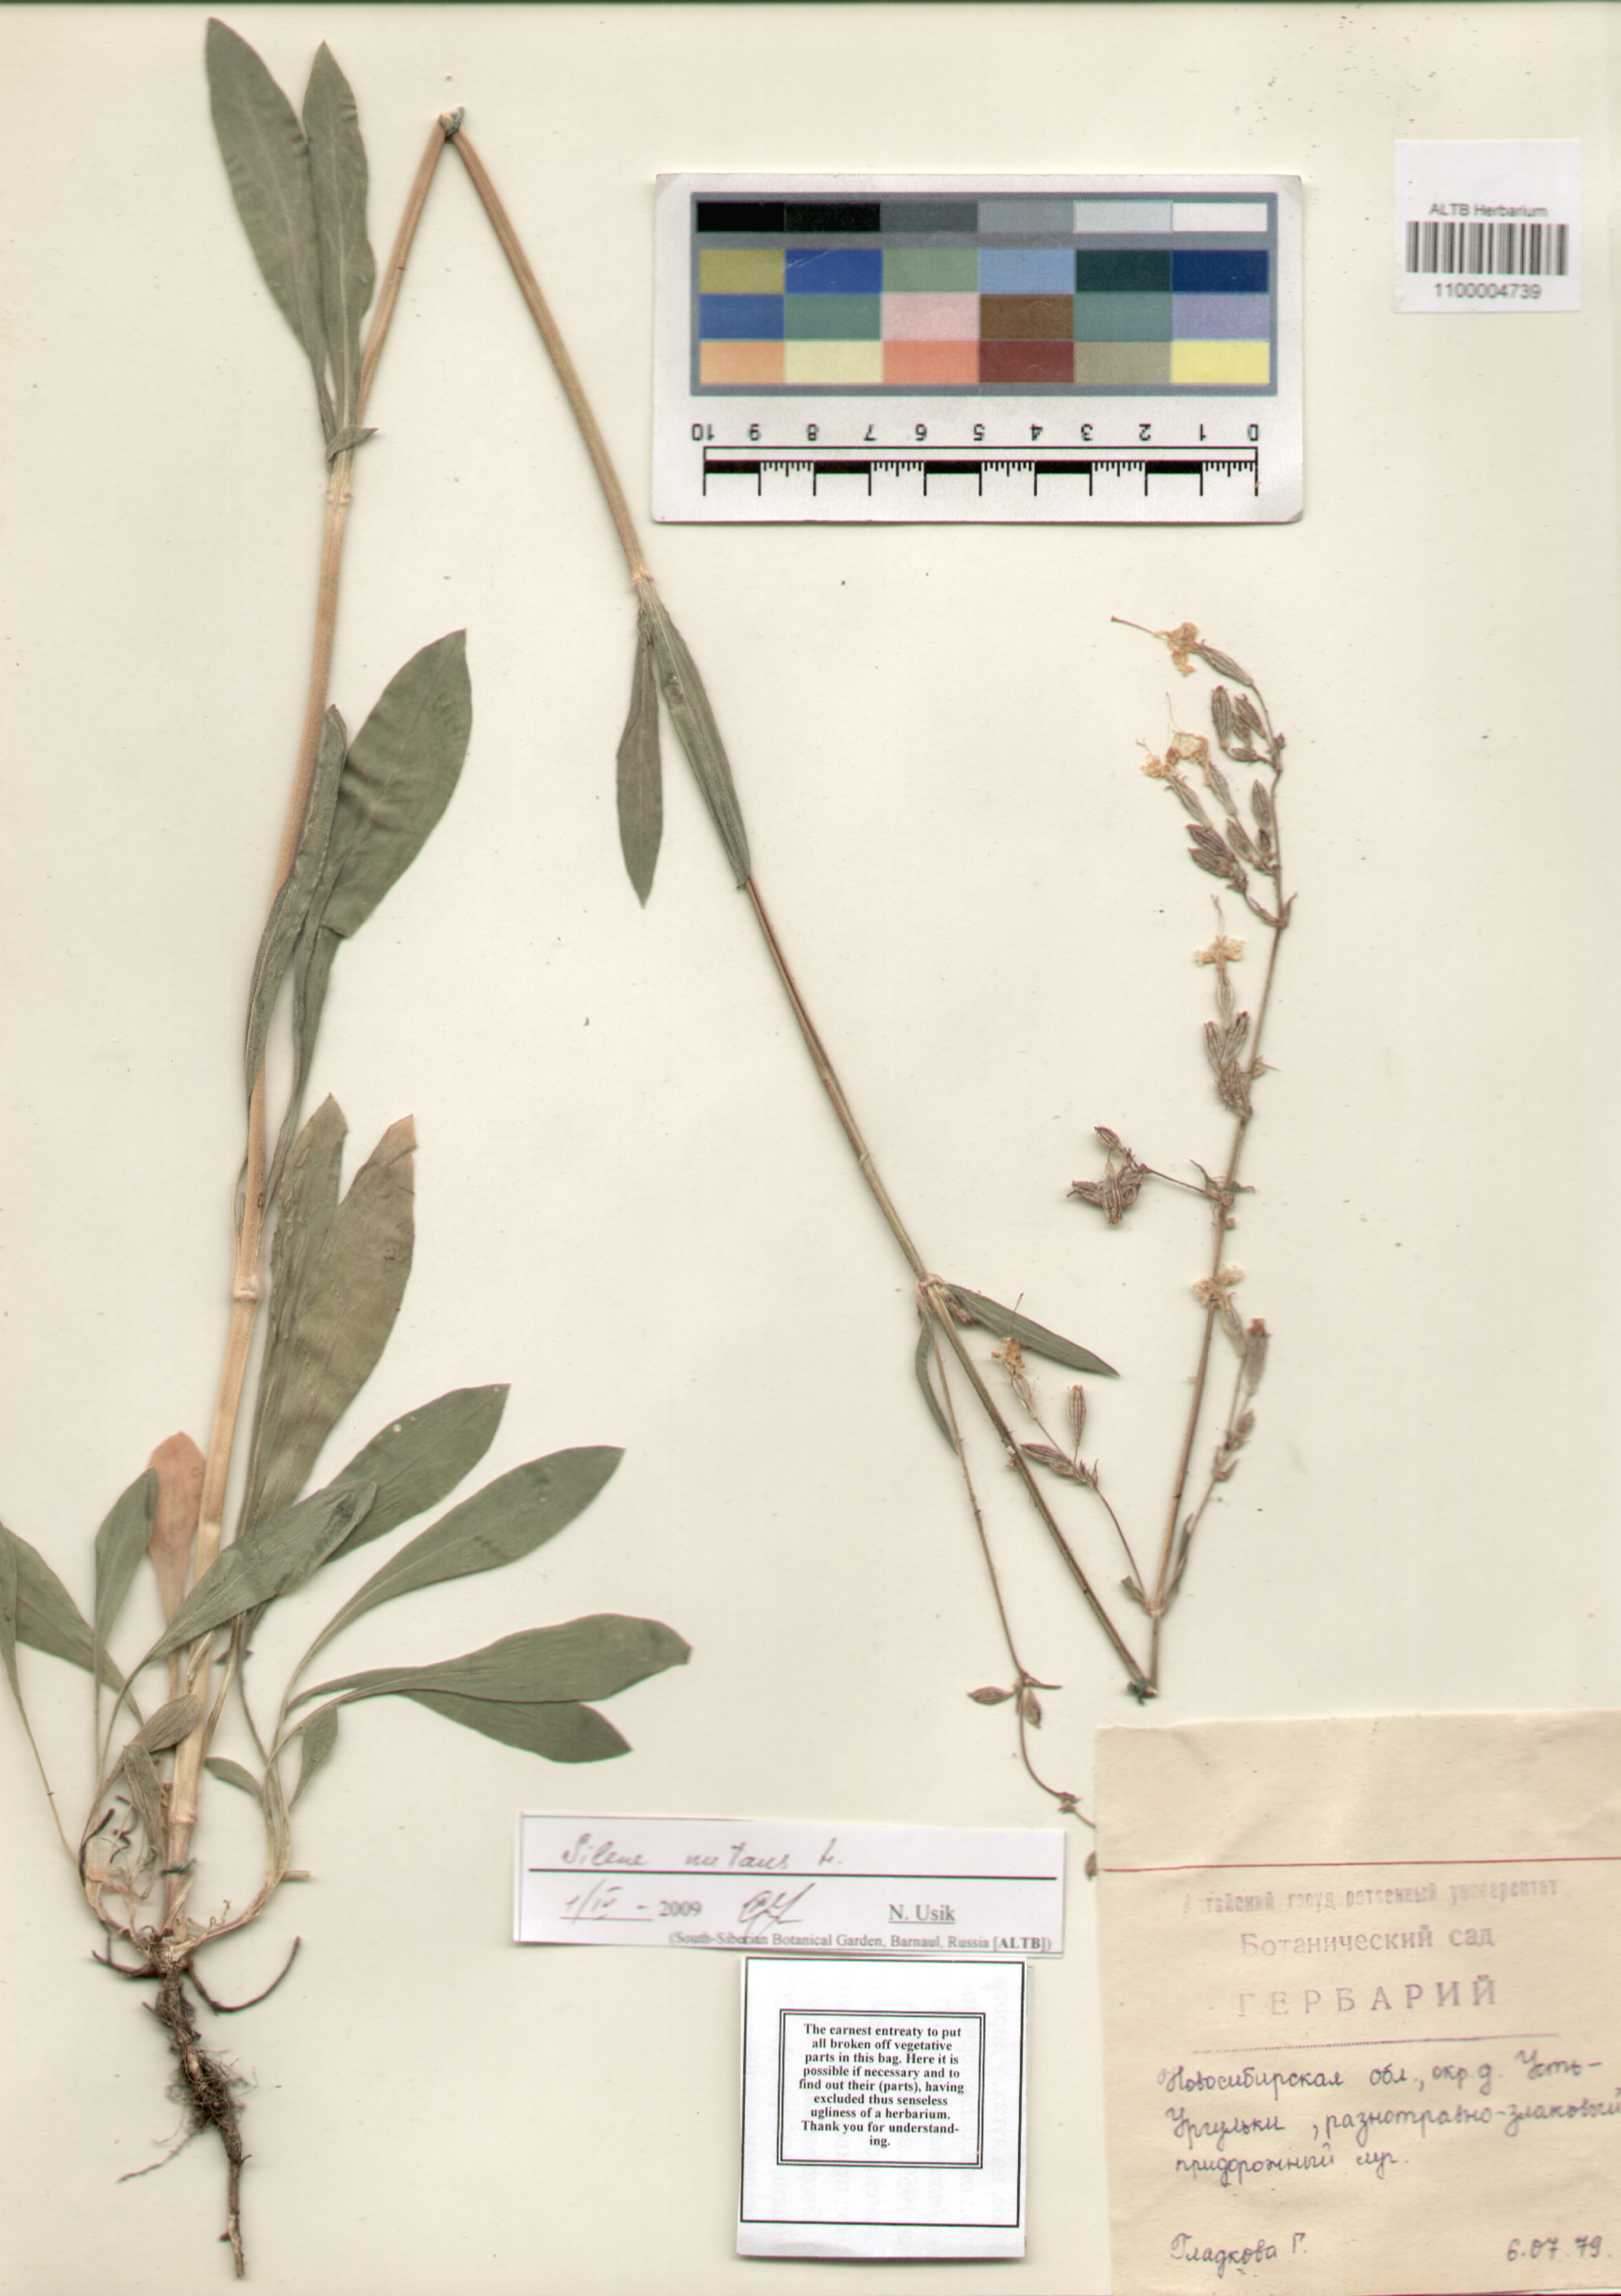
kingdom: Plantae
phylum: Tracheophyta
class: Magnoliopsida
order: Caryophyllales
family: Caryophyllaceae
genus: Silene
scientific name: Silene nutans
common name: Nottingham catchfly
